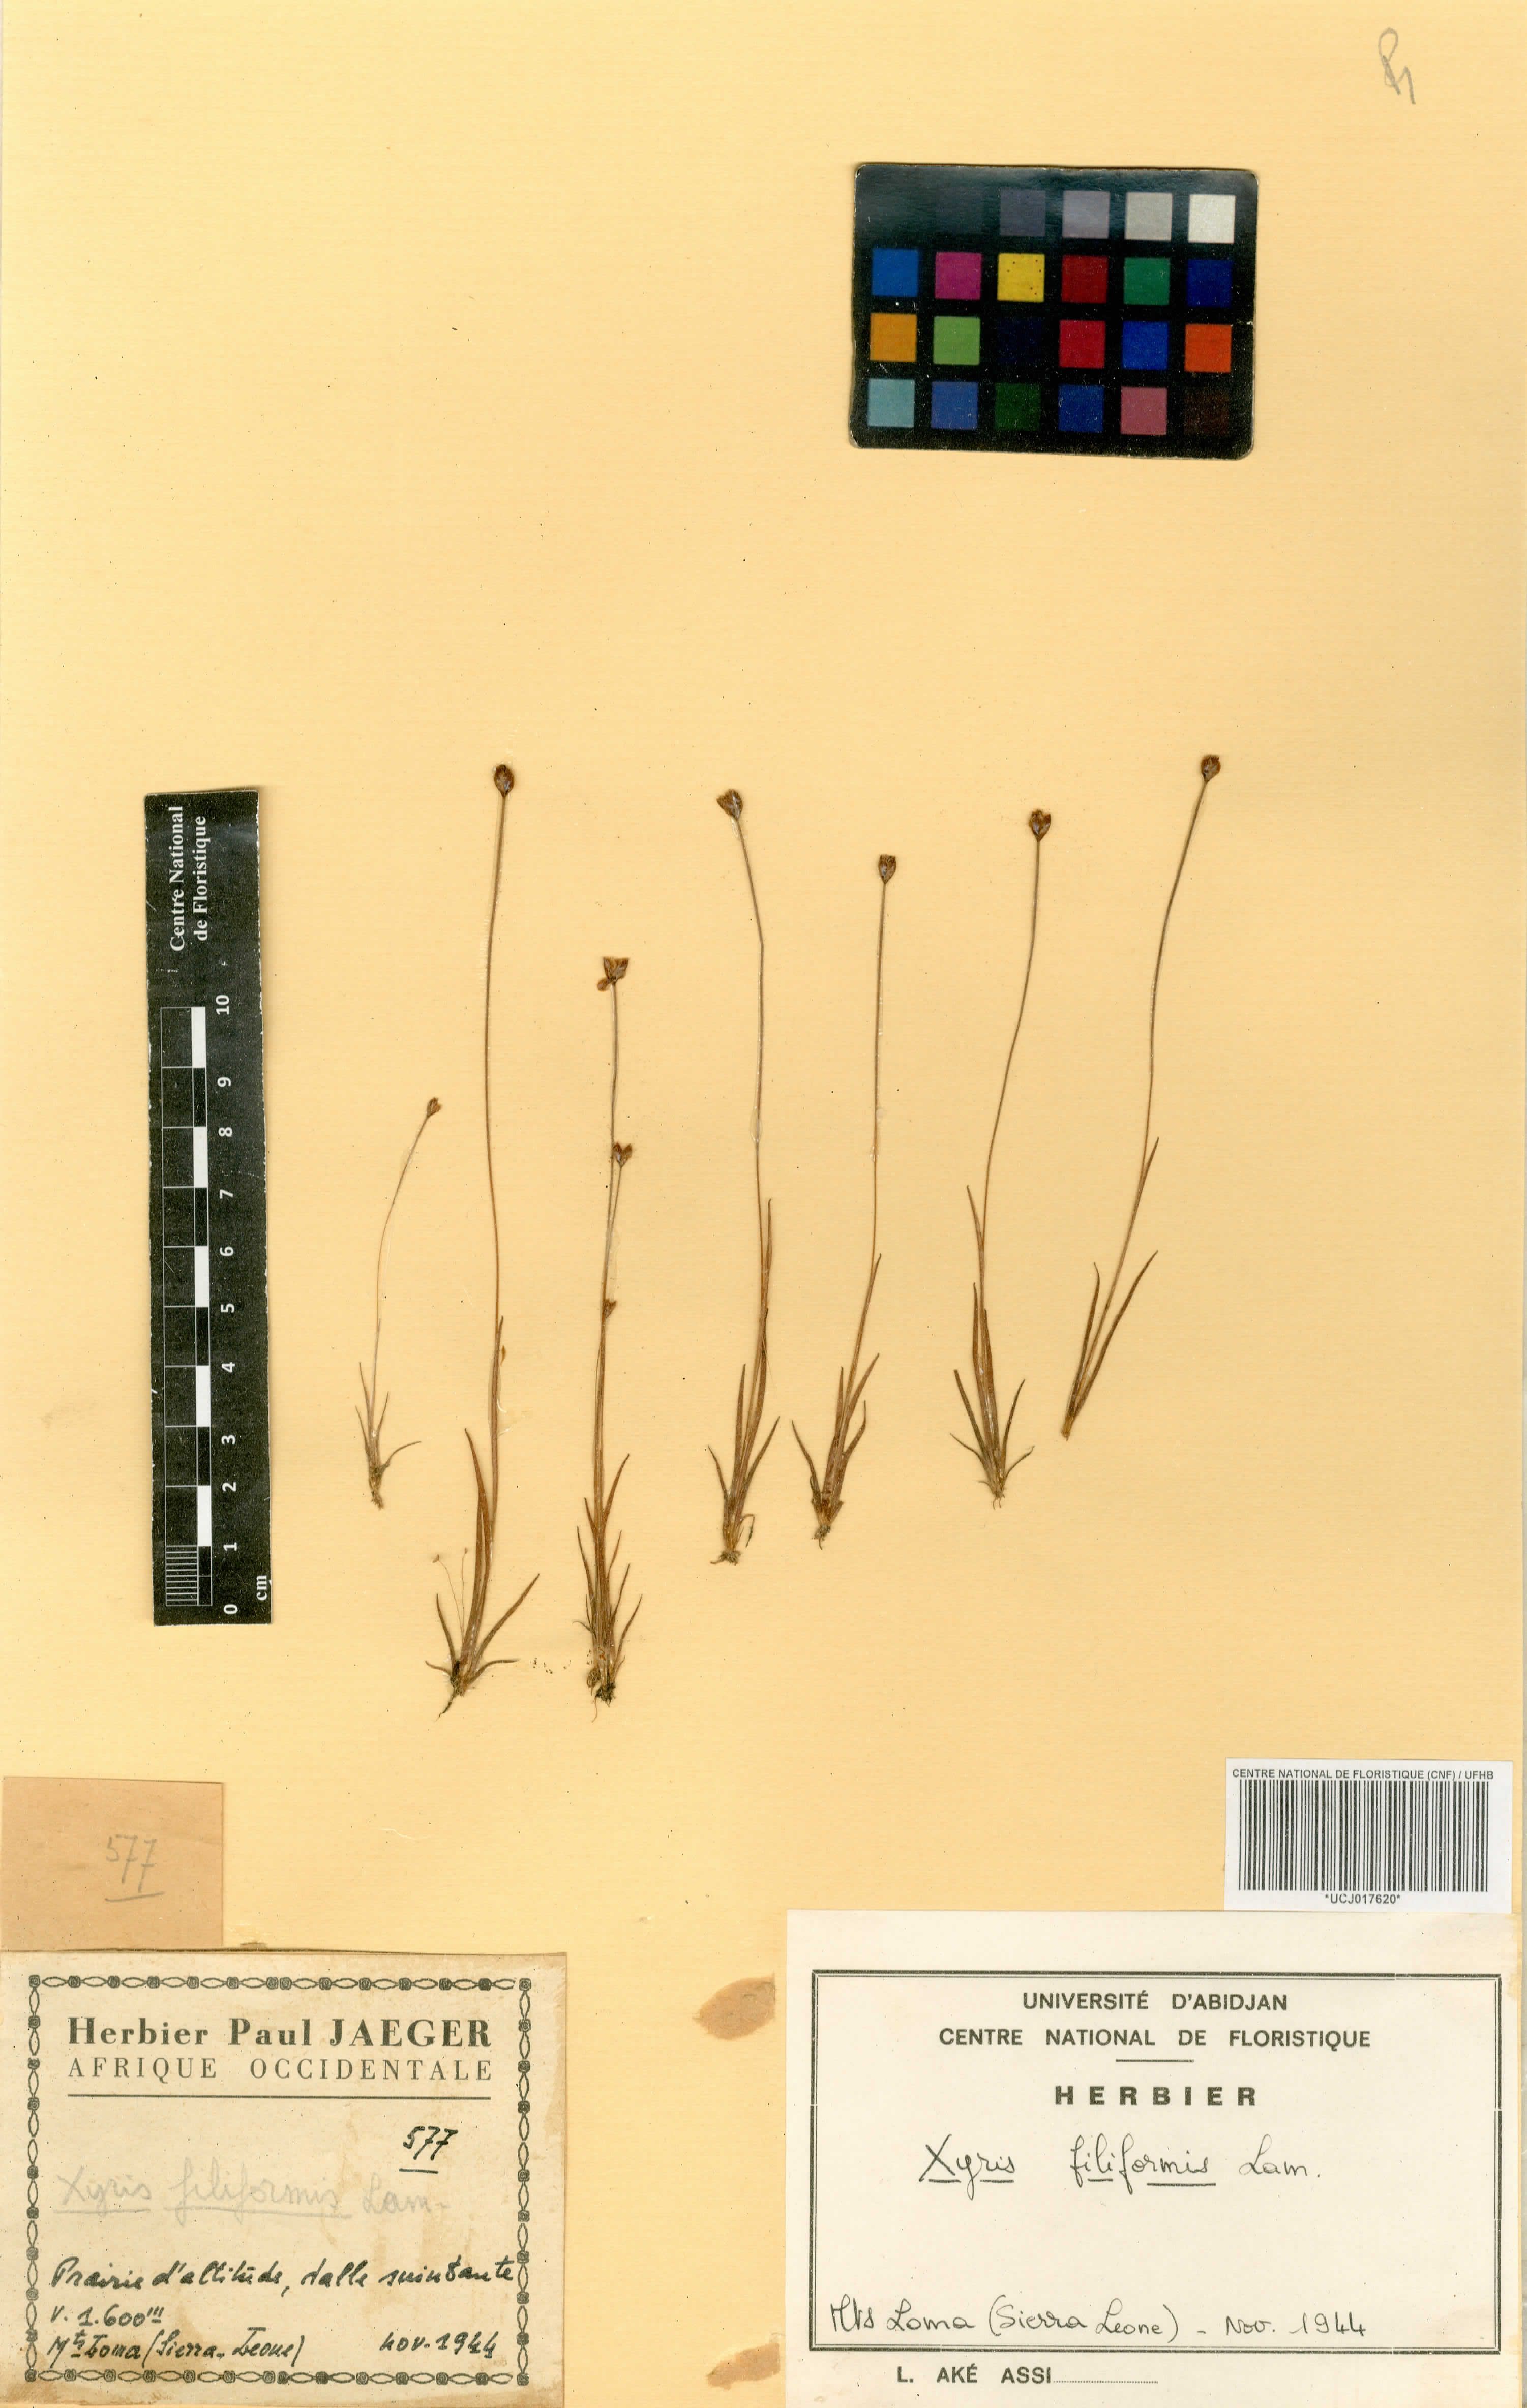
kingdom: Plantae
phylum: Tracheophyta
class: Liliopsida
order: Poales
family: Xyridaceae
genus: Xyris
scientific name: Xyris filiformis
